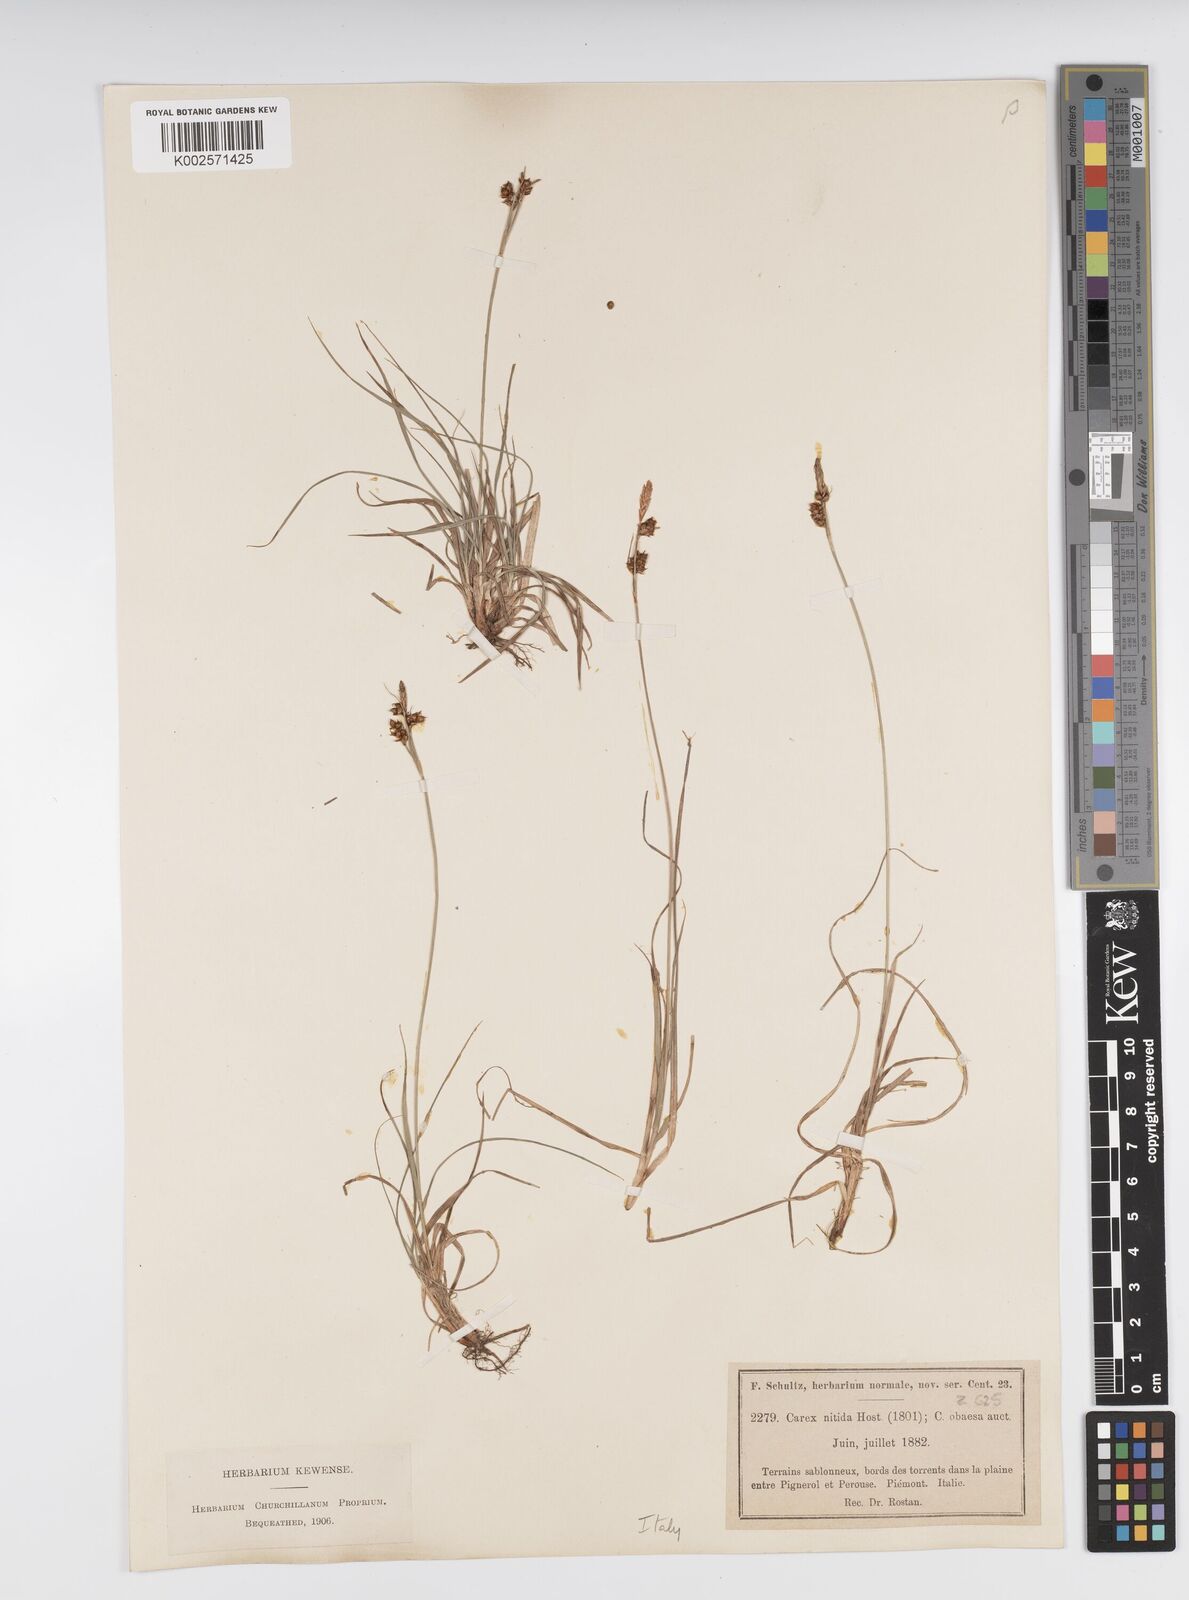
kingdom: Plantae
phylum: Tracheophyta
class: Liliopsida
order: Poales
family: Cyperaceae
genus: Carex
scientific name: Carex liparocarpos
